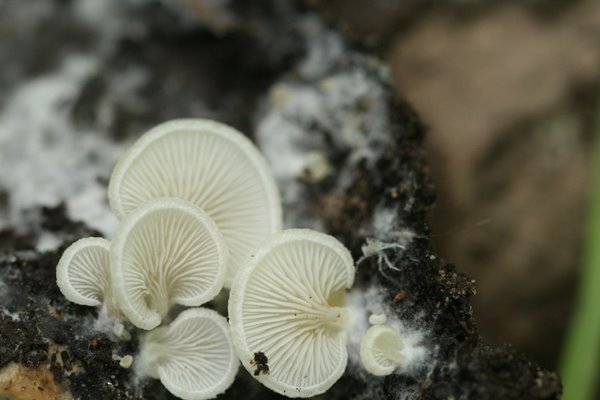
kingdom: Fungi
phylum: Basidiomycota
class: Agaricomycetes
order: Agaricales
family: Entolomataceae
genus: Clitopilus
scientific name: Clitopilus hobsonii
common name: Miller's oysterling
